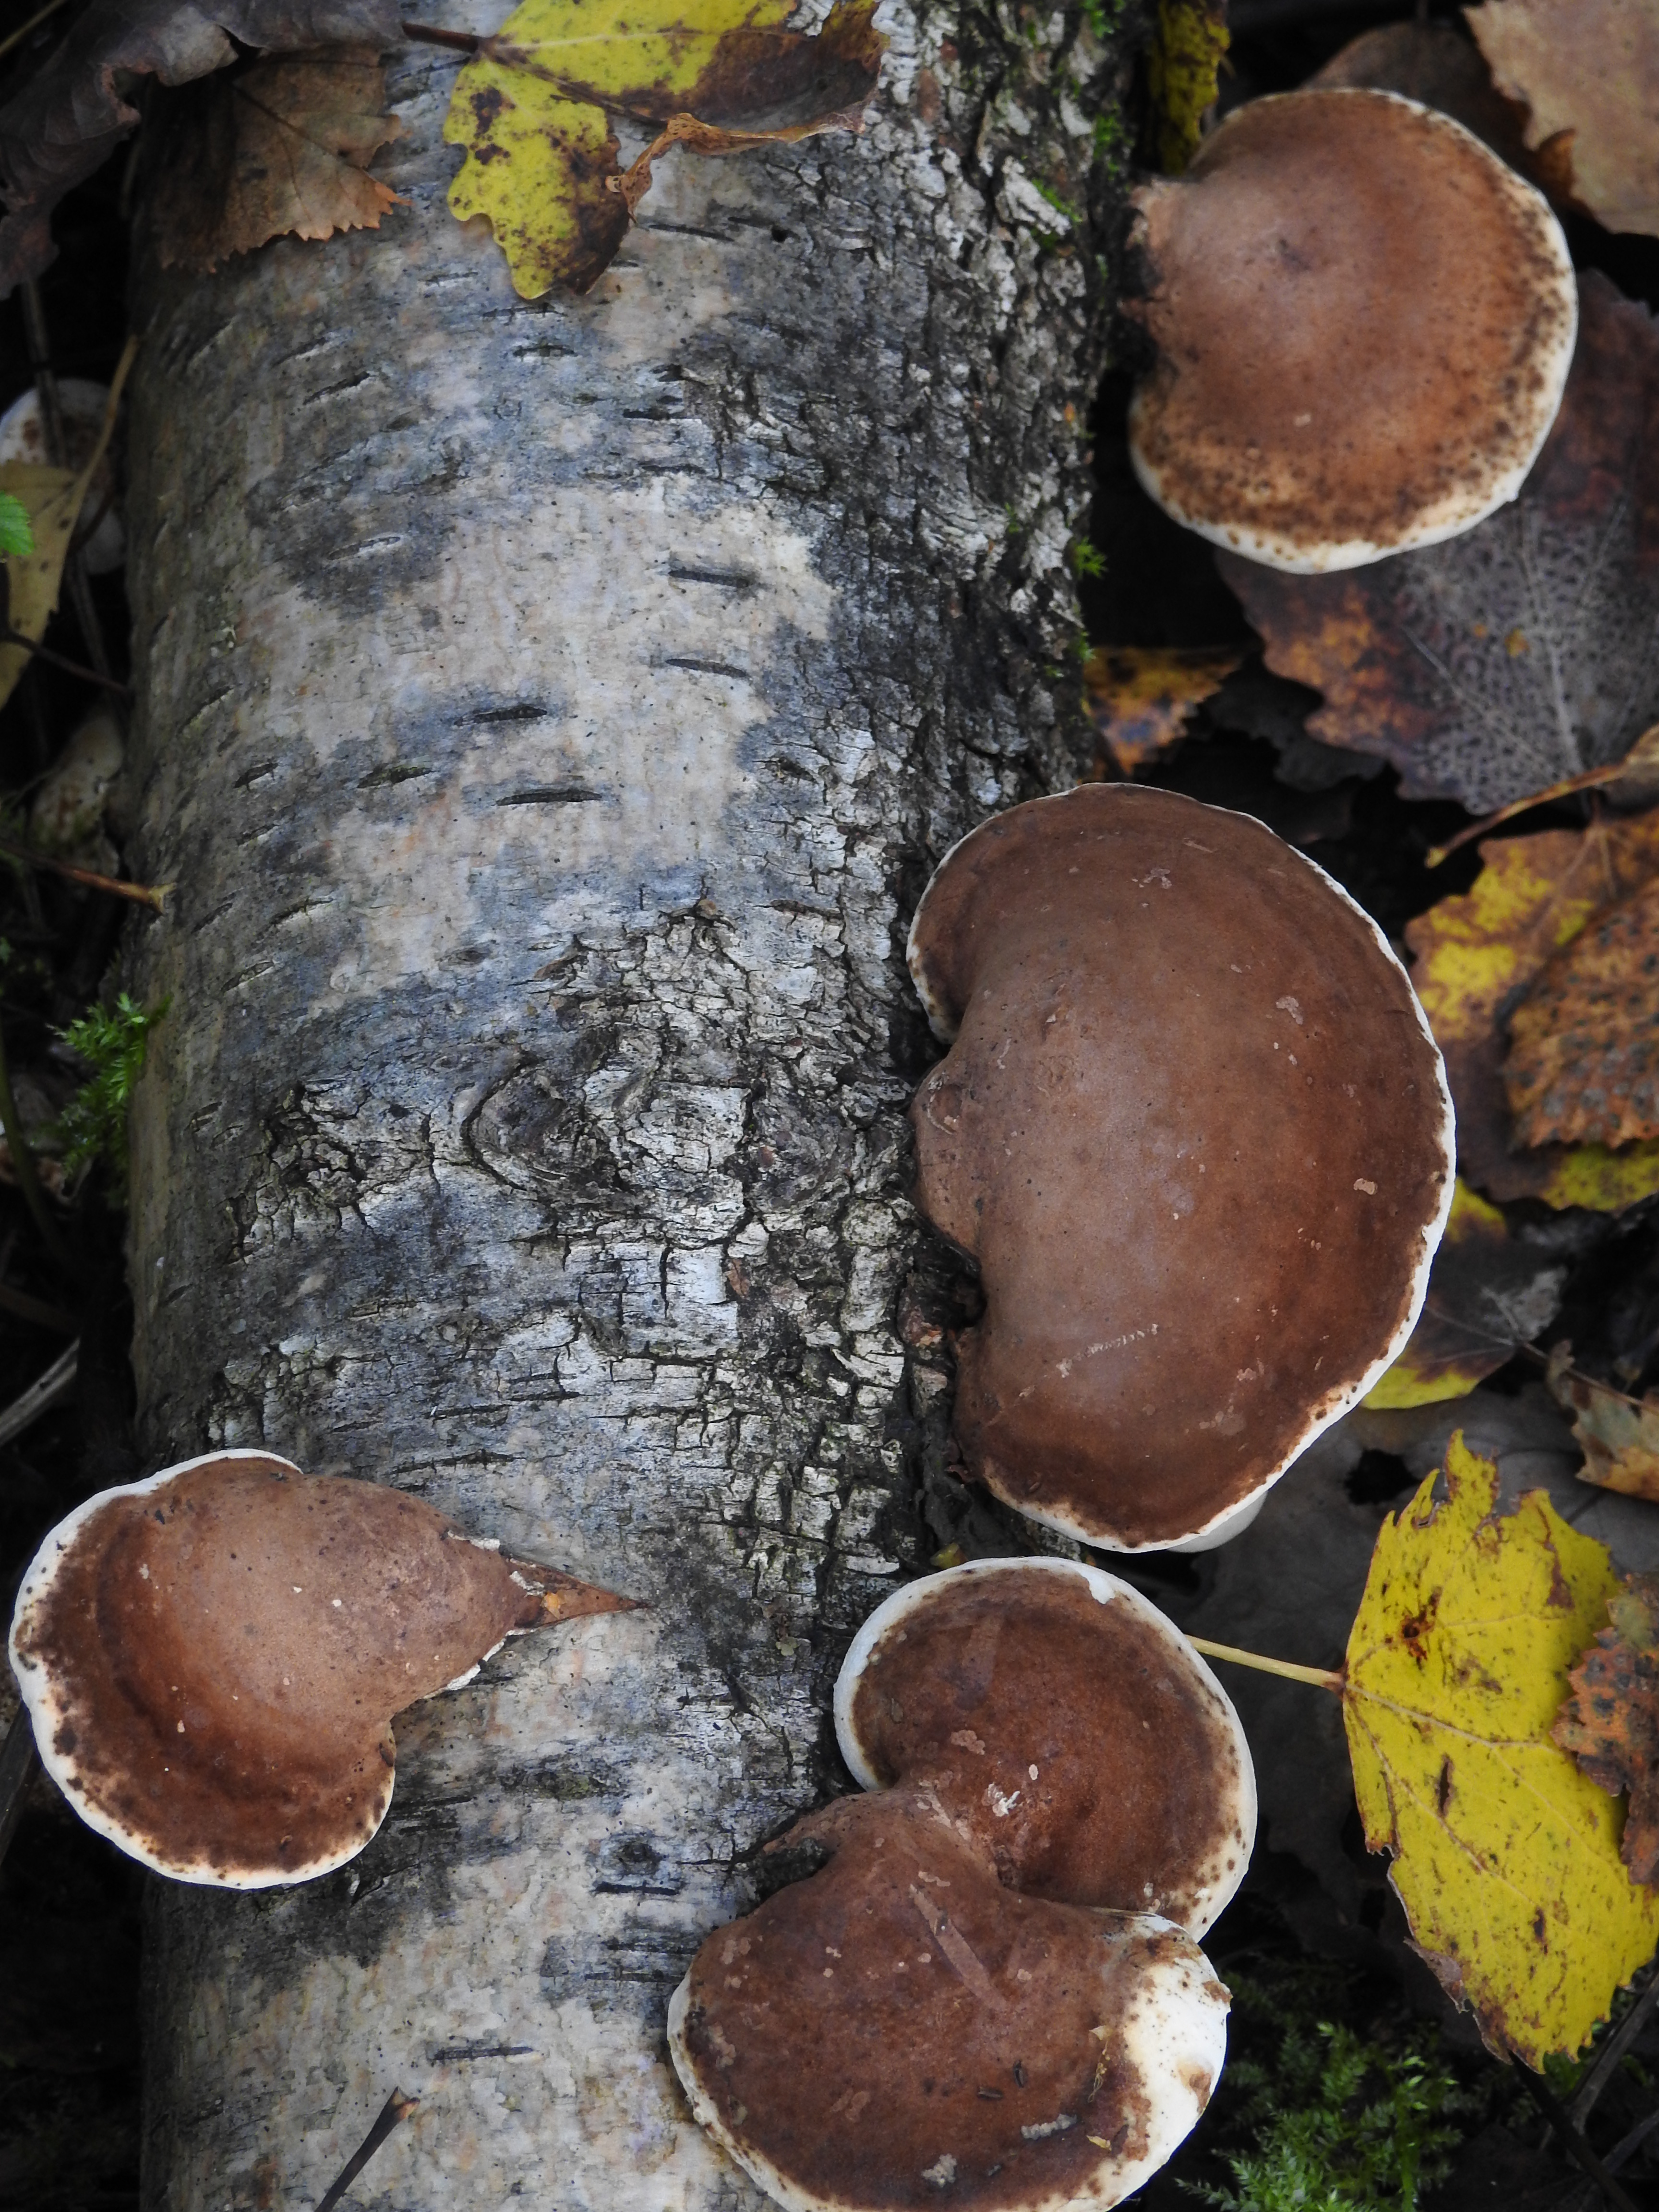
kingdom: Fungi
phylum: Basidiomycota
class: Agaricomycetes
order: Polyporales
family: Fomitopsidaceae
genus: Fomitopsis
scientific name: Fomitopsis betulina
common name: Birch polypore
